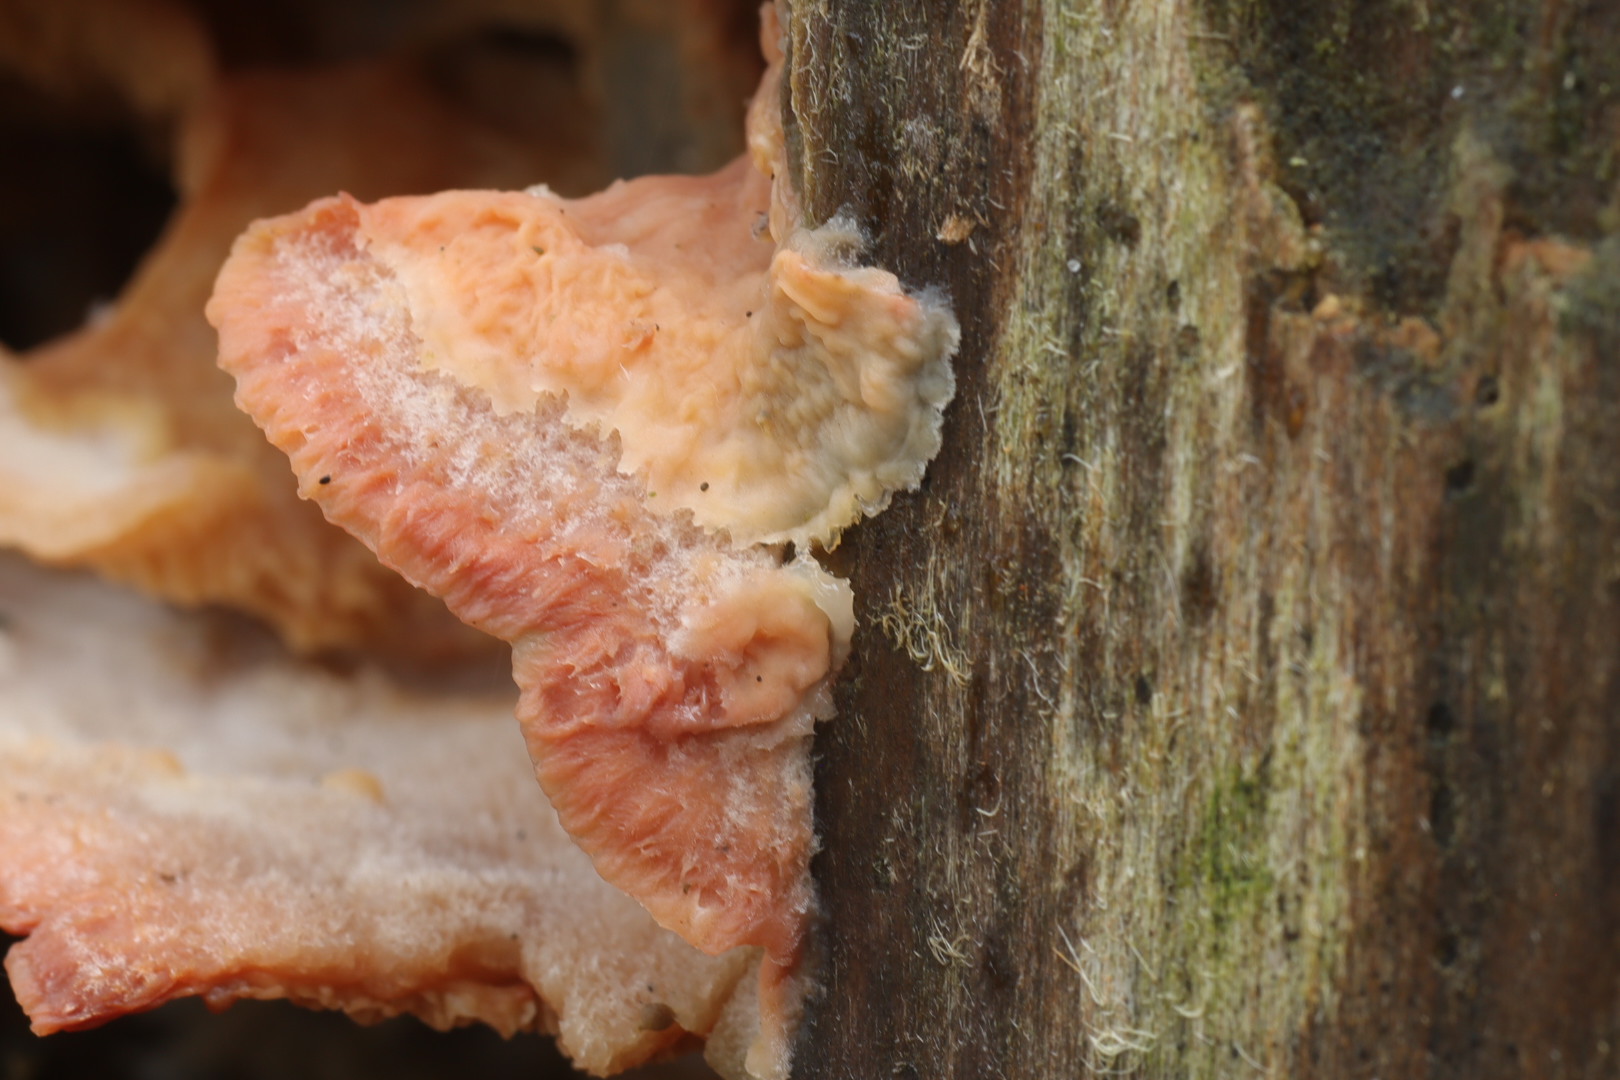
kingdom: Fungi
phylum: Basidiomycota
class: Agaricomycetes
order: Polyporales
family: Meruliaceae
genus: Phlebia
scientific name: Phlebia tremellosa
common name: bævrende åresvamp
